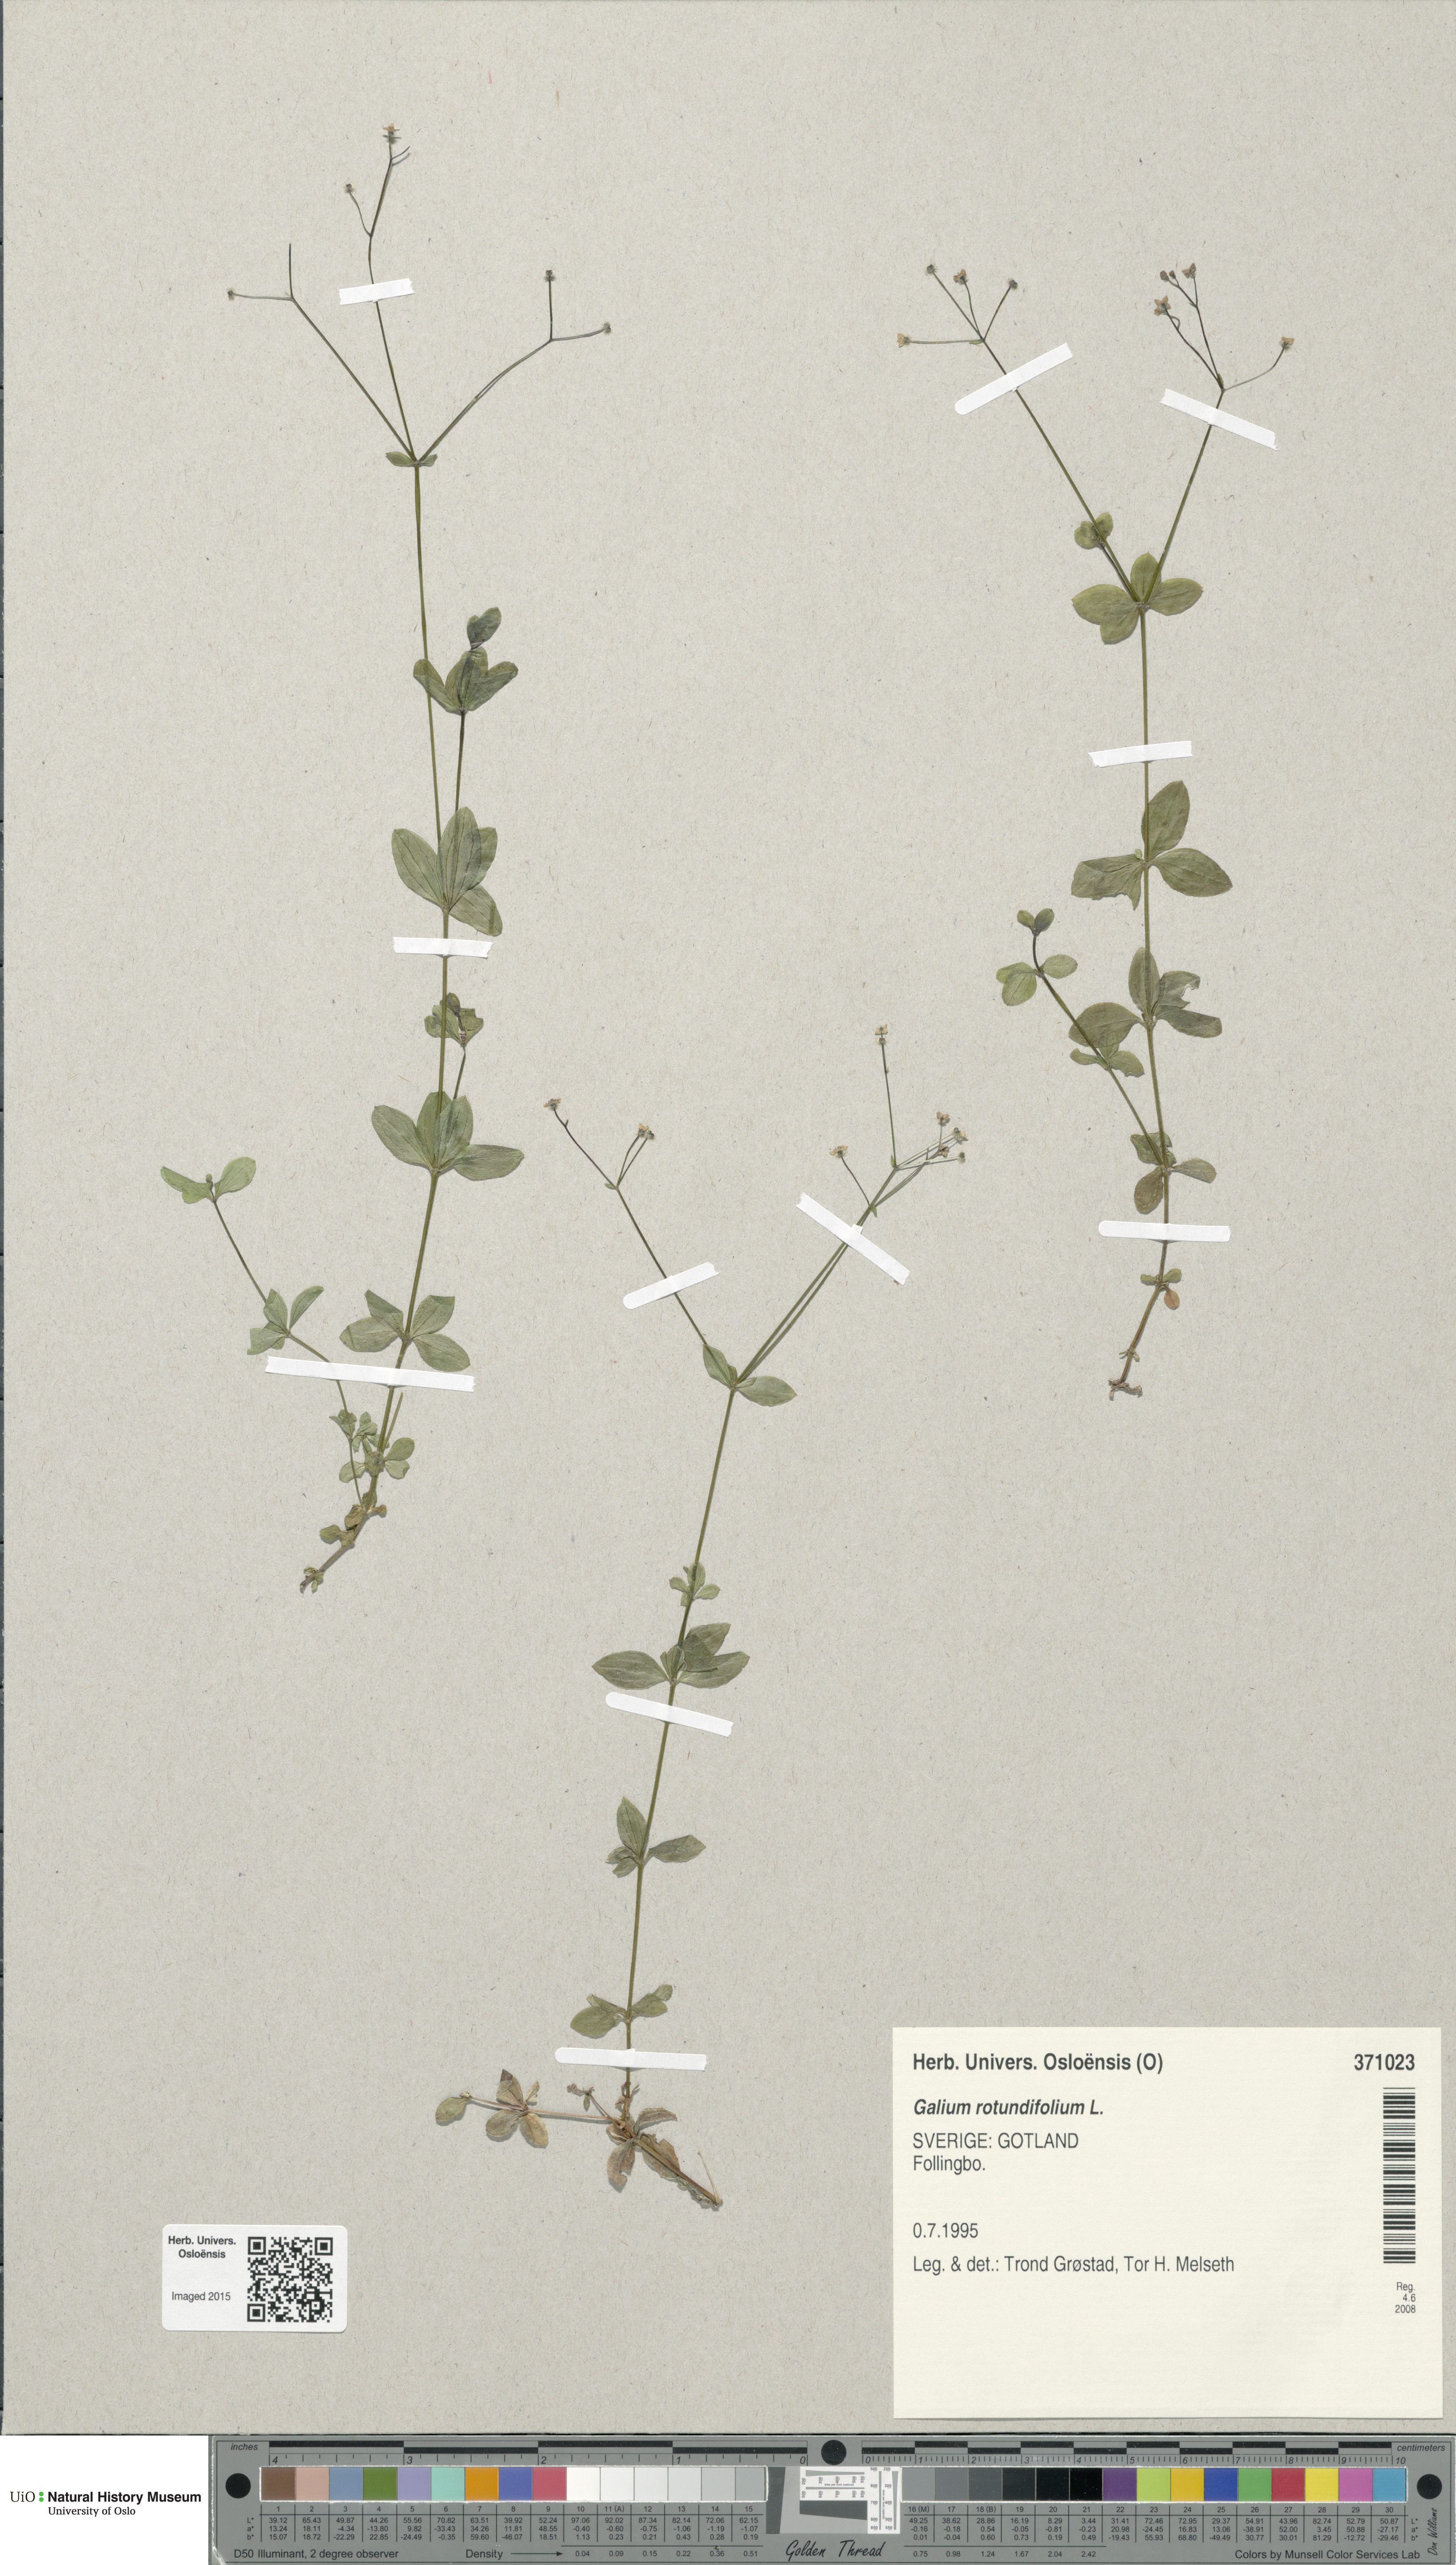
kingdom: Plantae
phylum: Tracheophyta
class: Magnoliopsida
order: Gentianales
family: Rubiaceae
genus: Galium
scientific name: Galium rotundifolium
